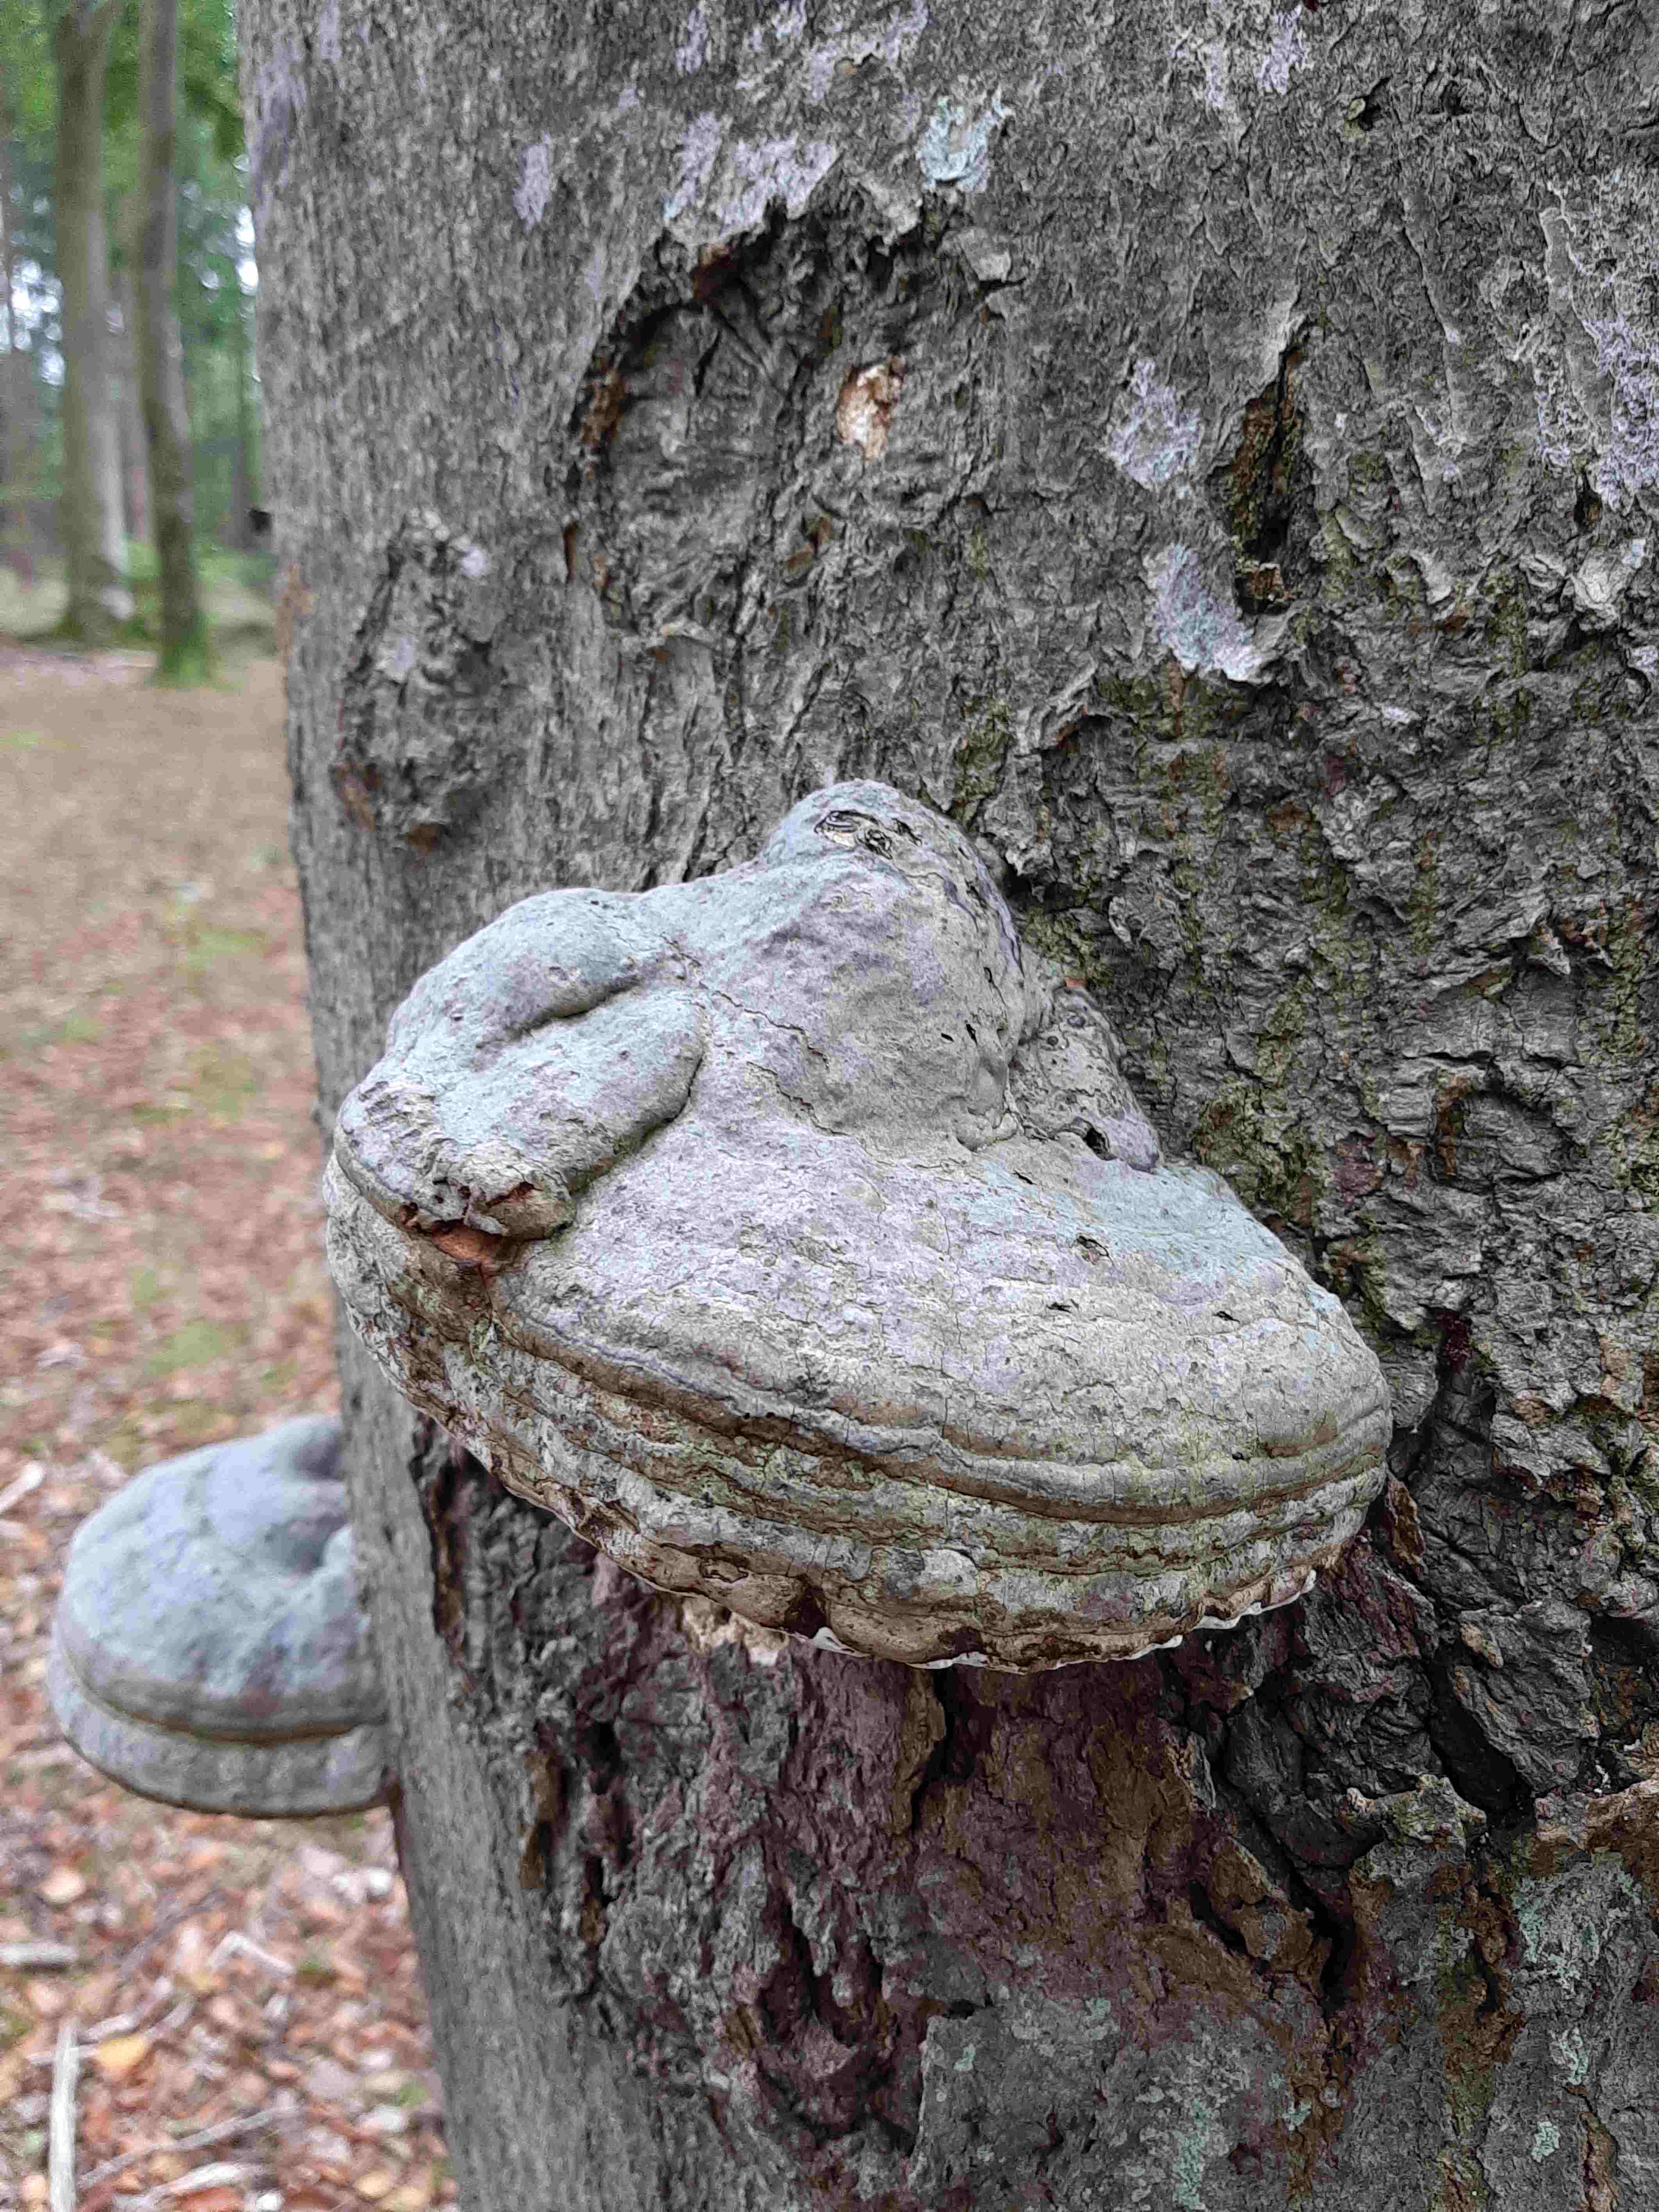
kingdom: Fungi
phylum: Basidiomycota
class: Agaricomycetes
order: Polyporales
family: Polyporaceae
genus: Fomes
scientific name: Fomes fomentarius
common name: tøndersvamp
